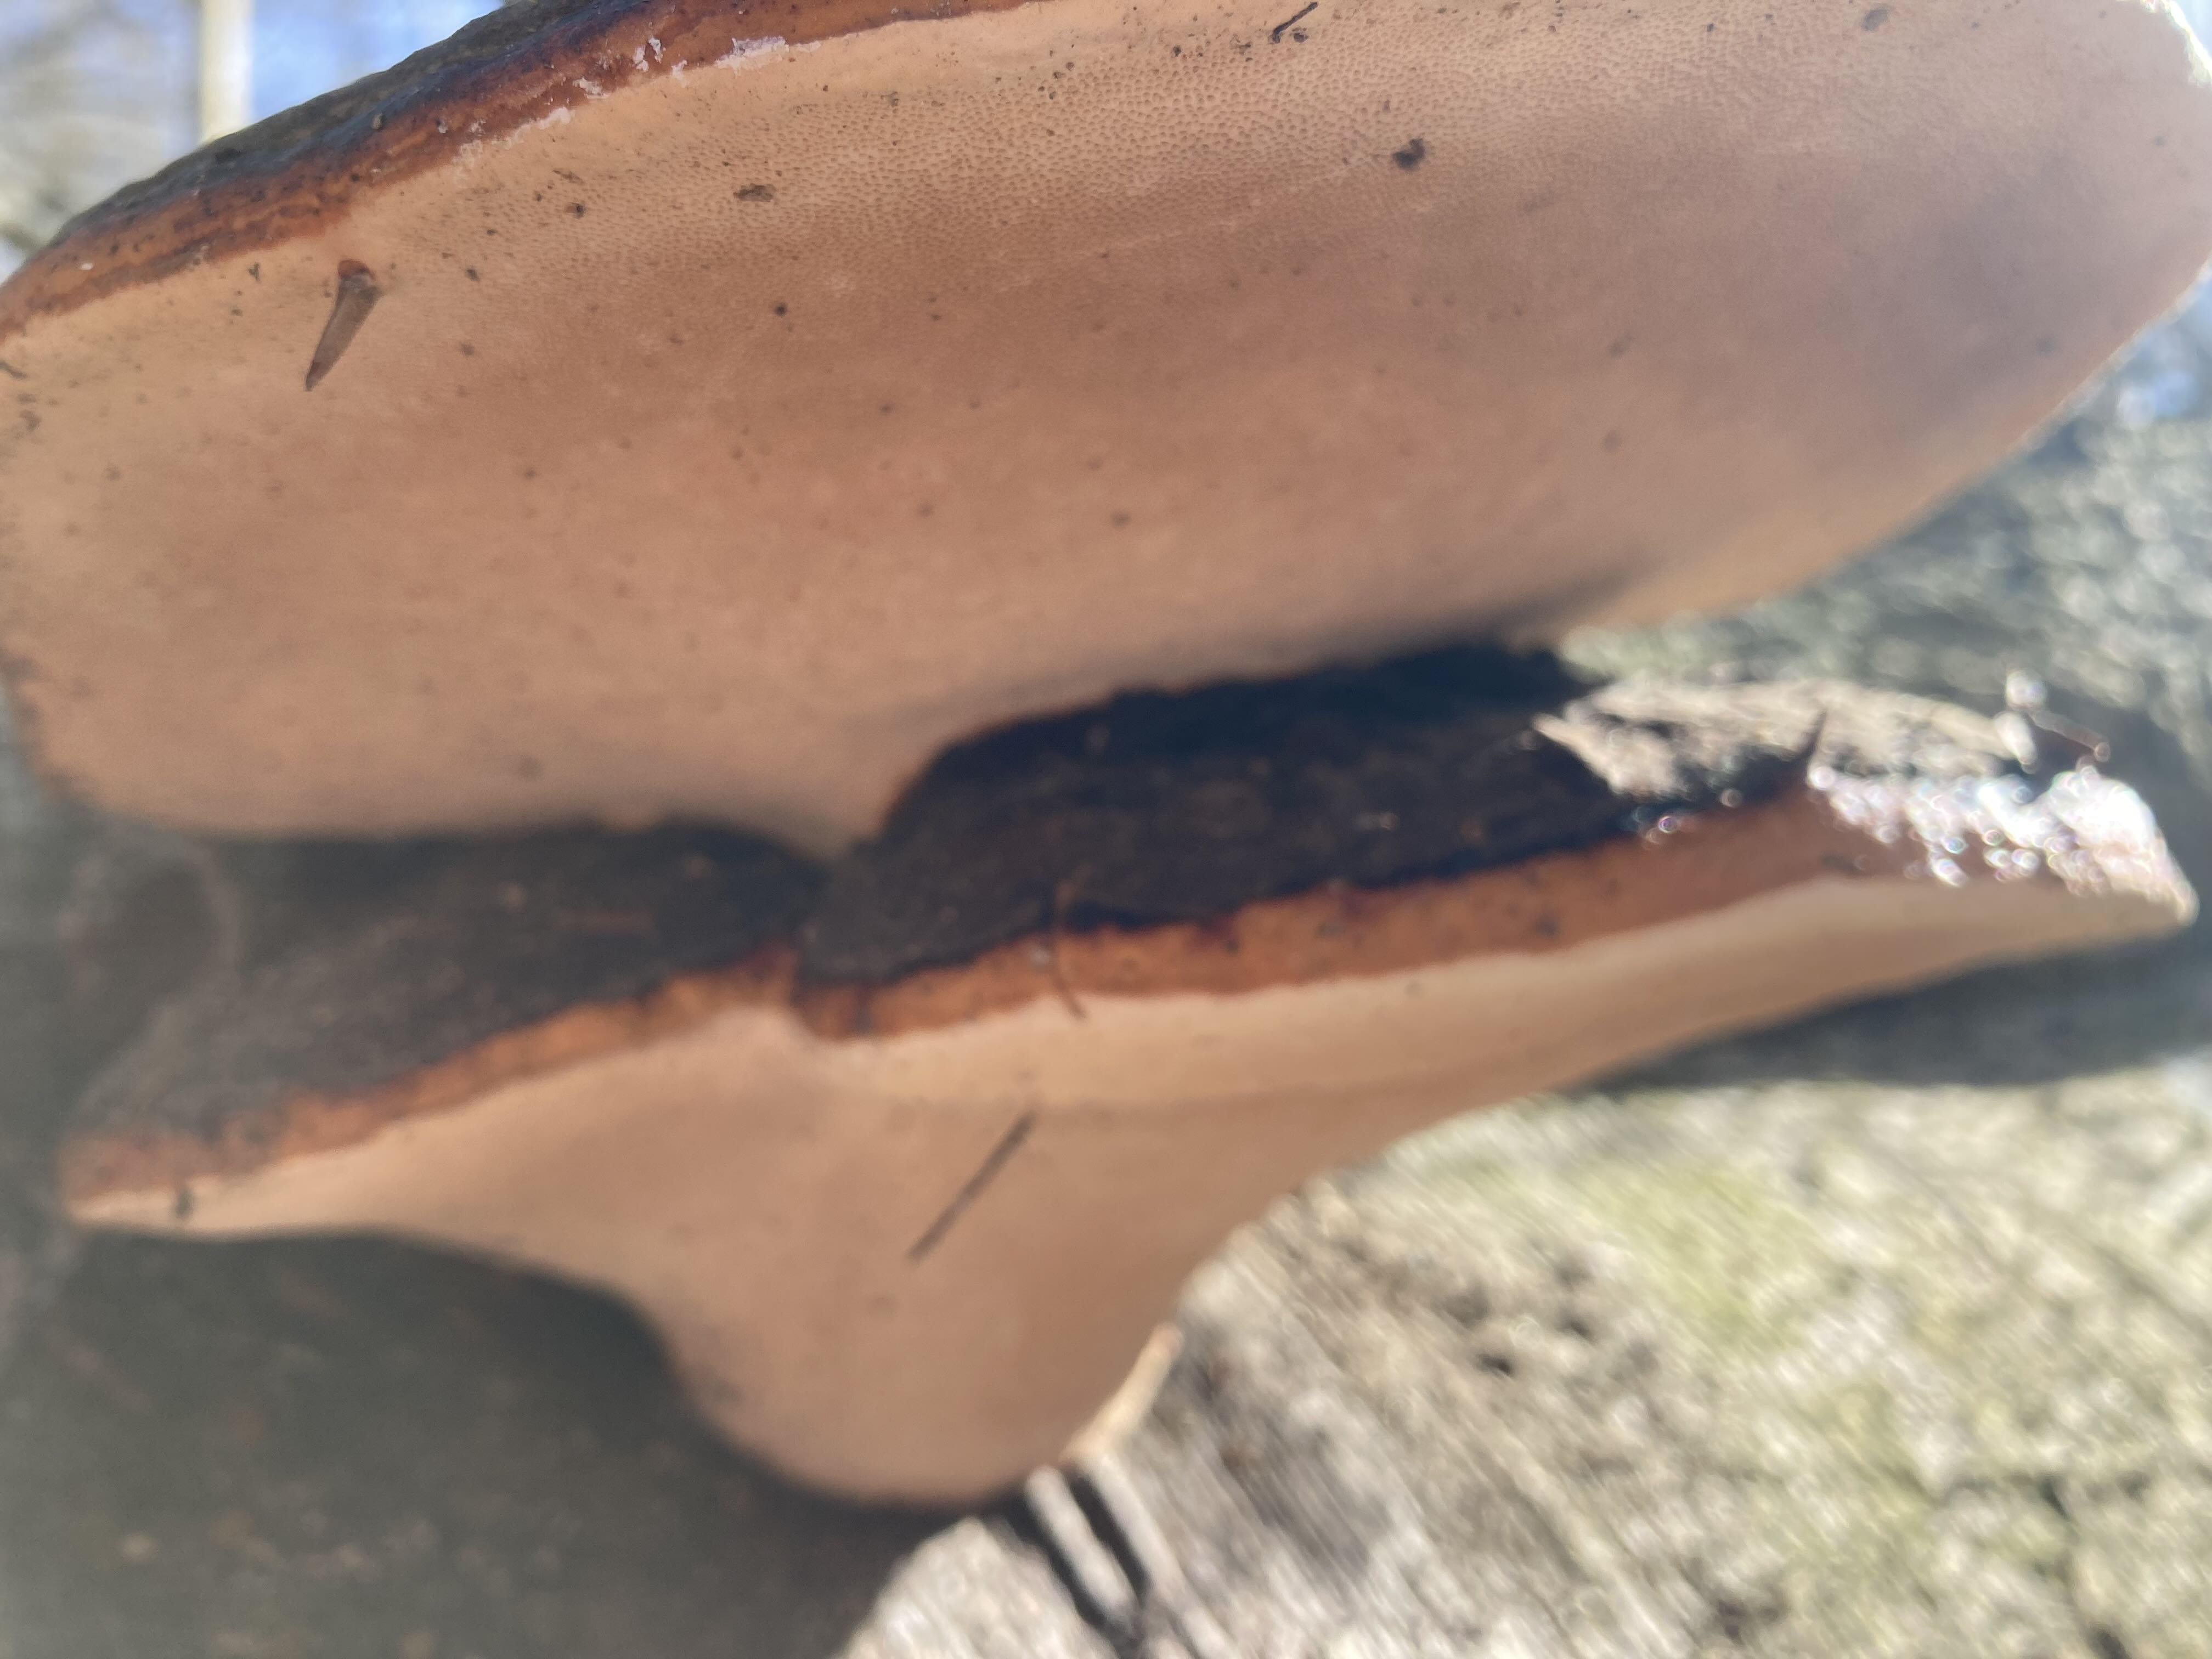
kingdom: Fungi
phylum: Basidiomycota
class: Agaricomycetes
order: Polyporales
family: Fomitopsidaceae
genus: Fomitopsis
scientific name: Fomitopsis pinicola
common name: randbæltet hovporesvamp
